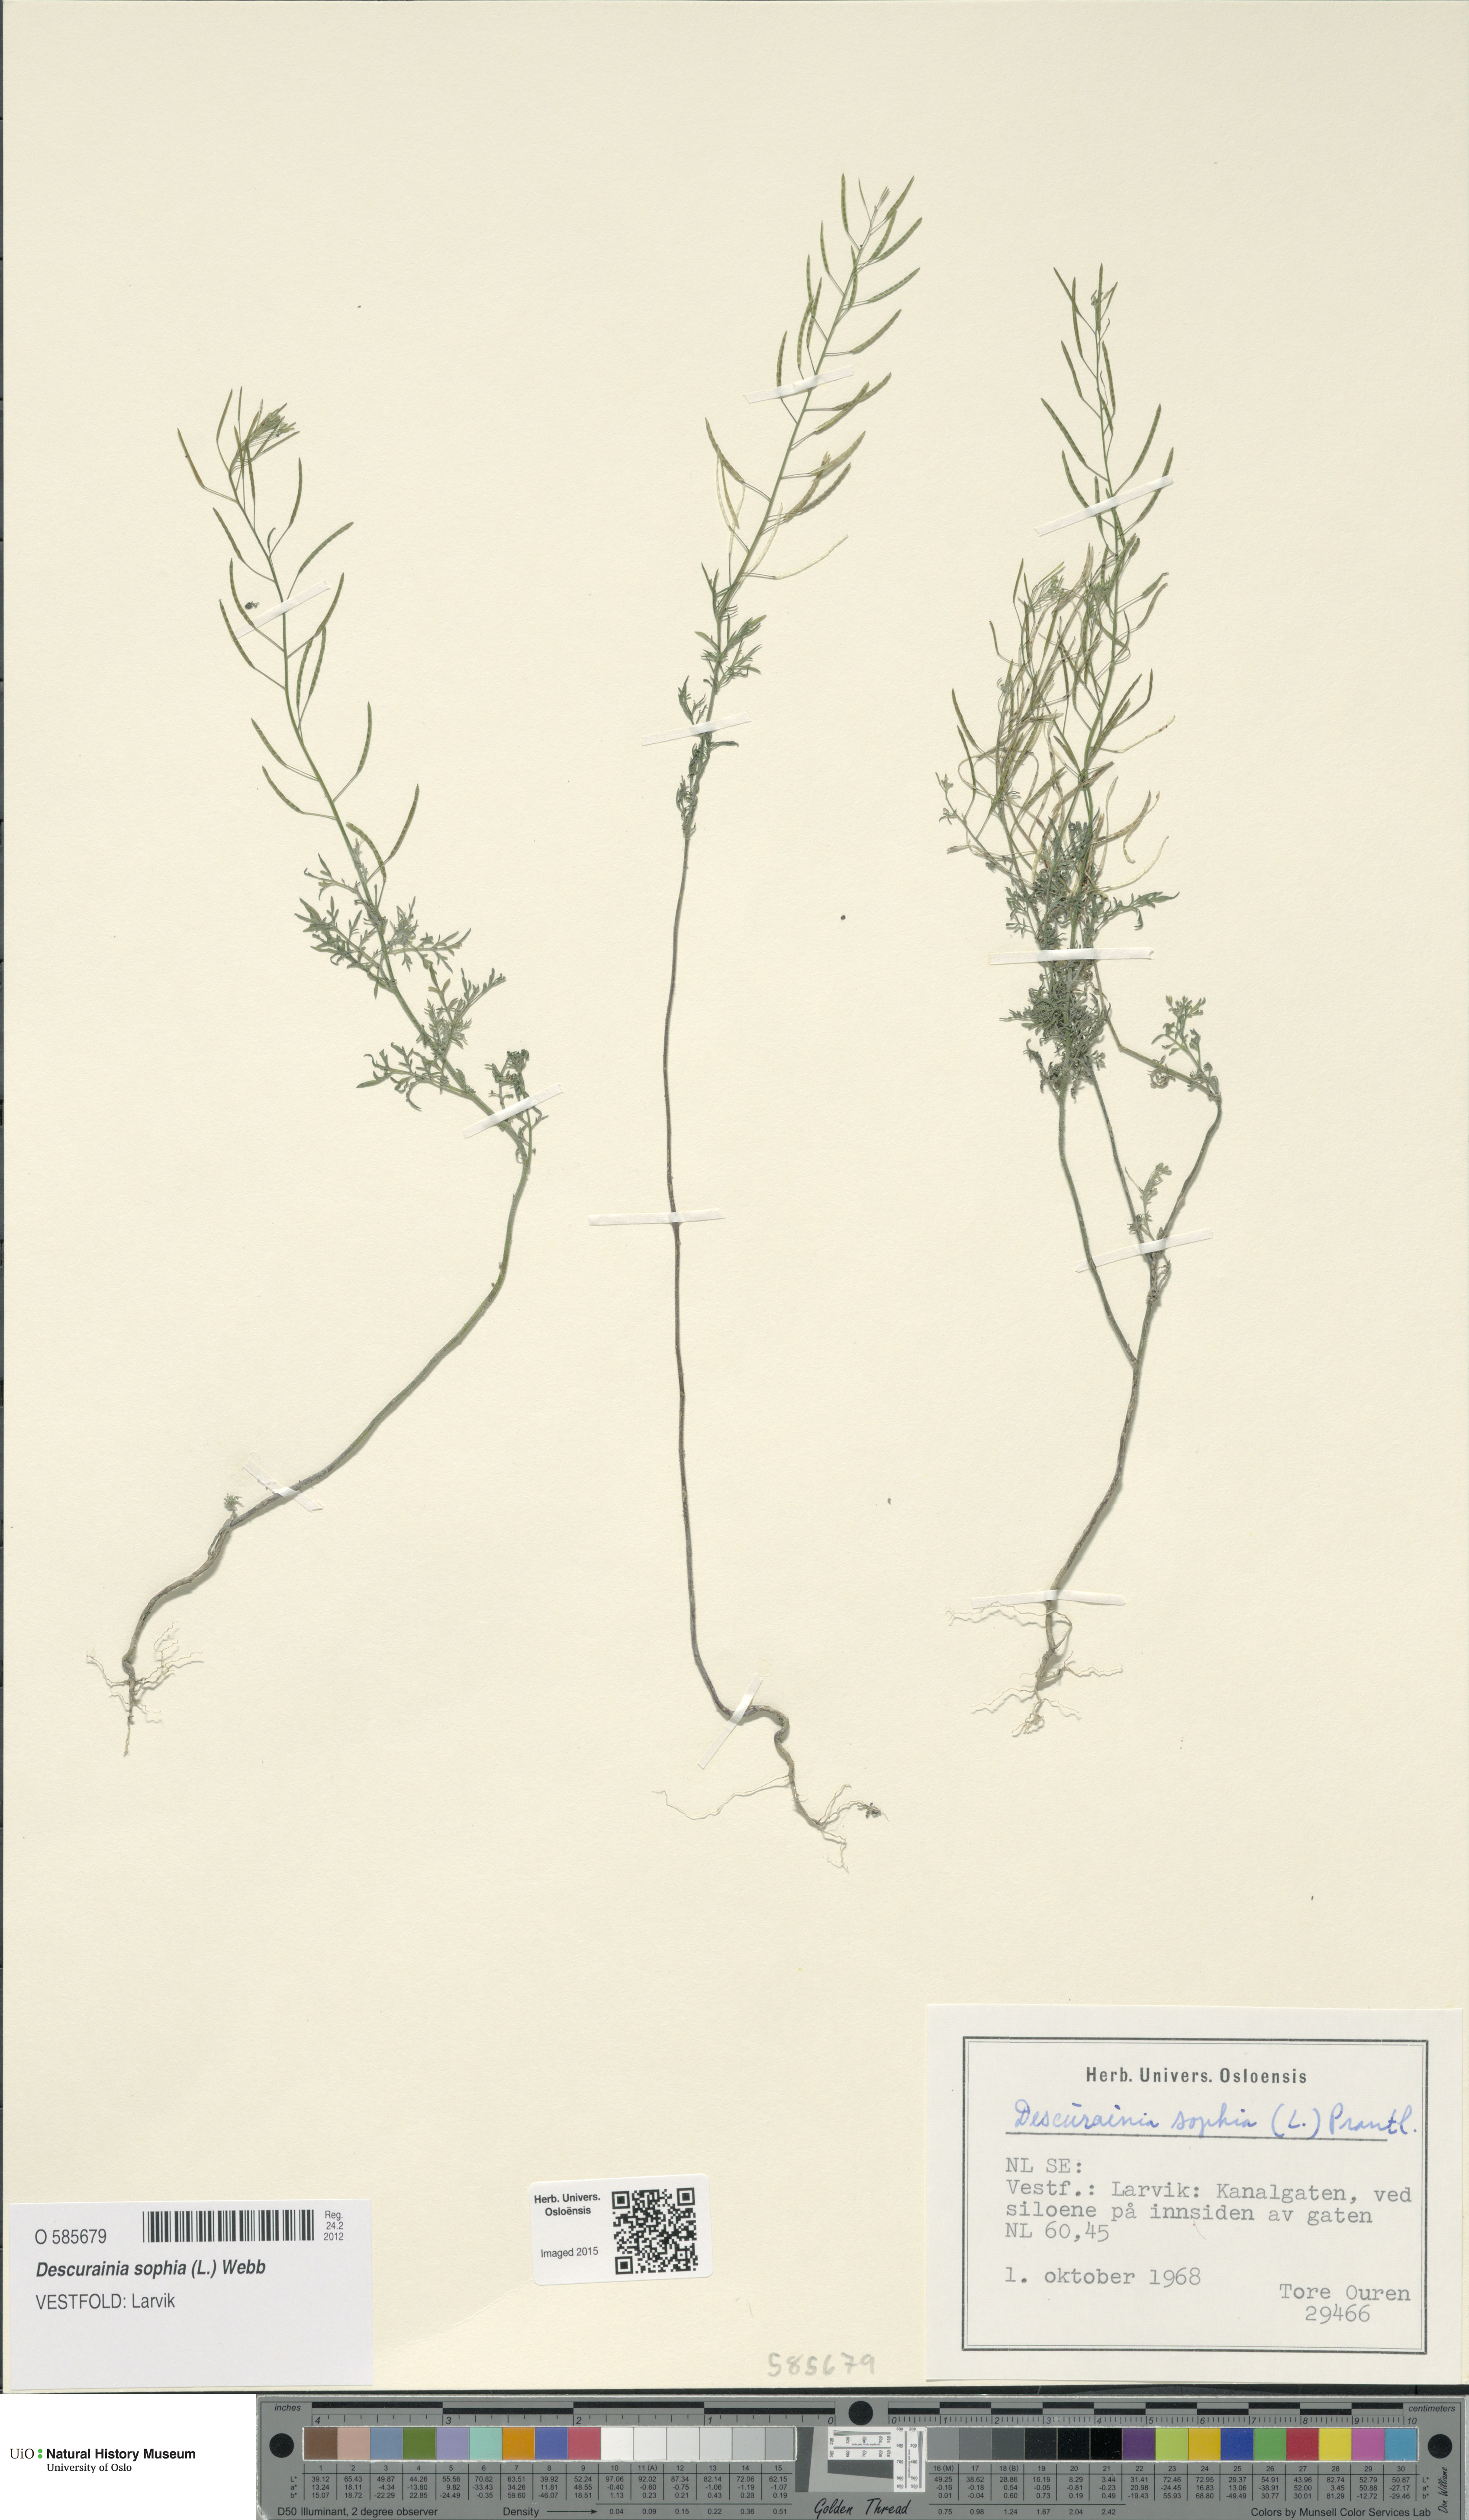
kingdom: Plantae
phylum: Tracheophyta
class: Magnoliopsida
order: Brassicales
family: Brassicaceae
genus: Descurainia
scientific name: Descurainia sophia
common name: Flixweed
